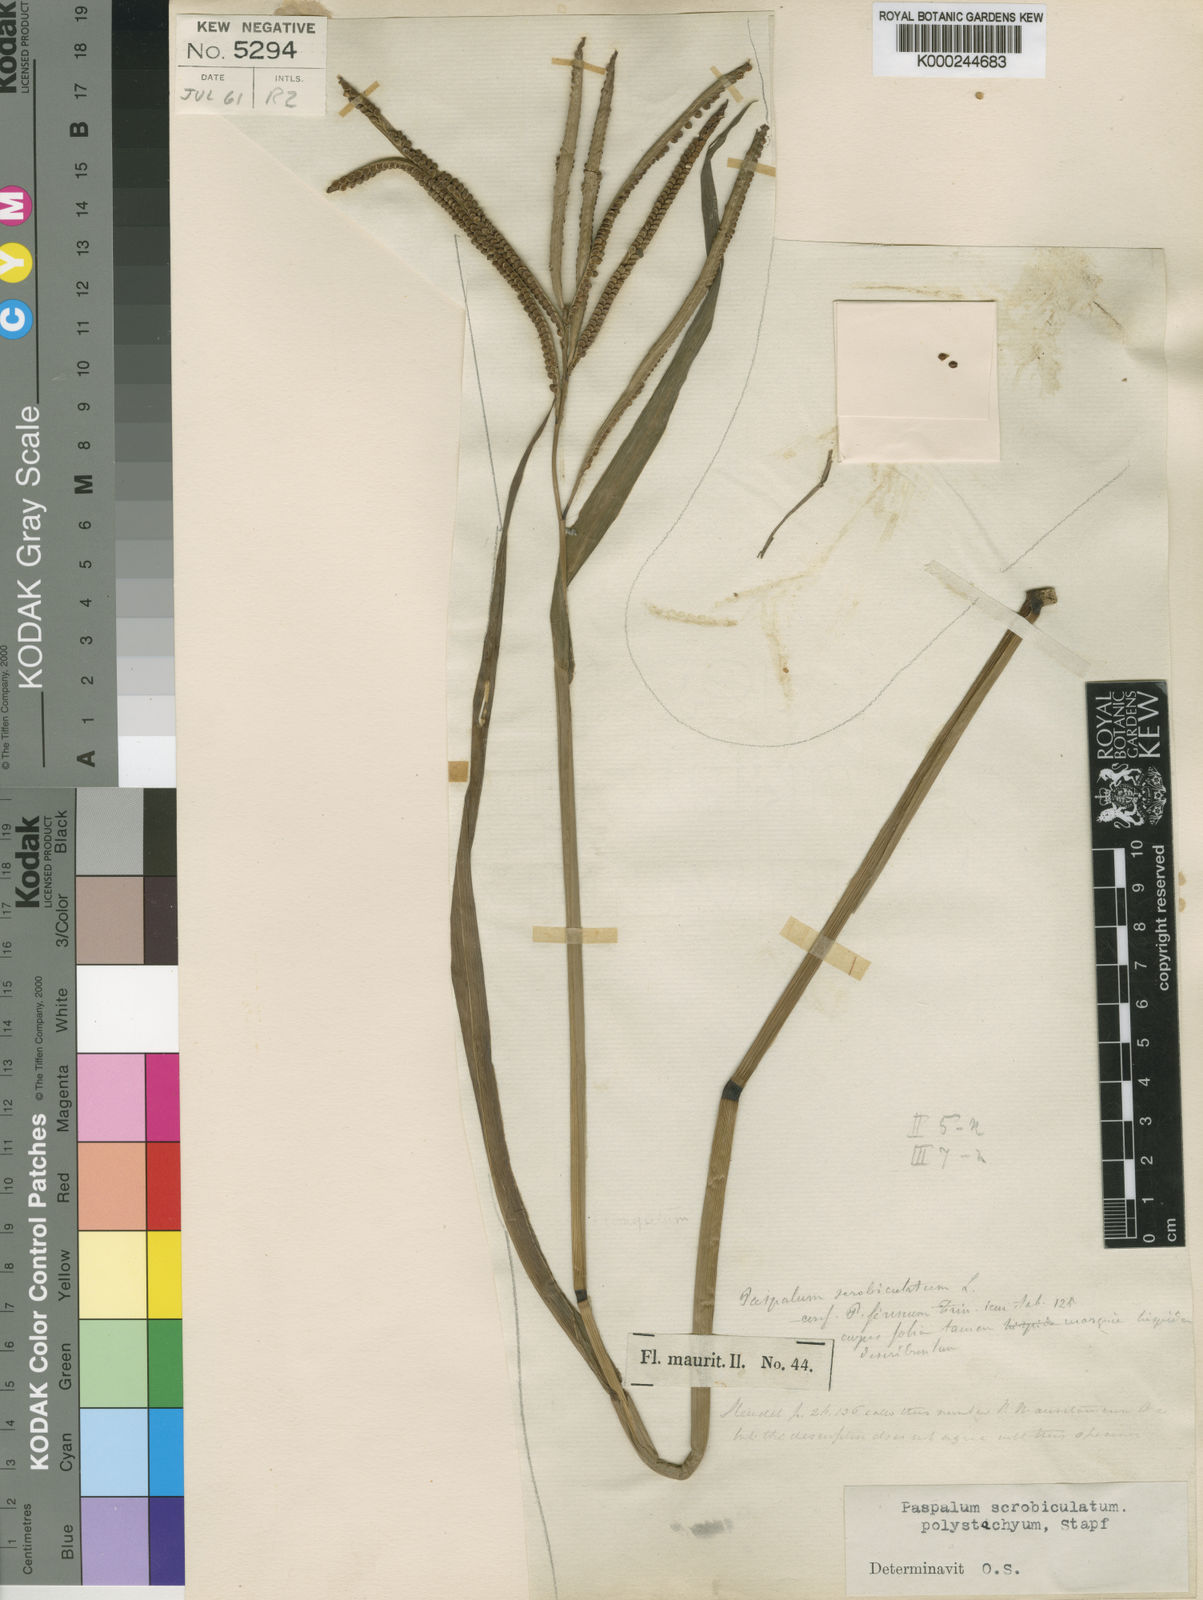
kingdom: Plantae
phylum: Tracheophyta
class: Liliopsida
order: Poales
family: Poaceae
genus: Paspalum
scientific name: Paspalum scrobiculatum
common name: Kodo millet
